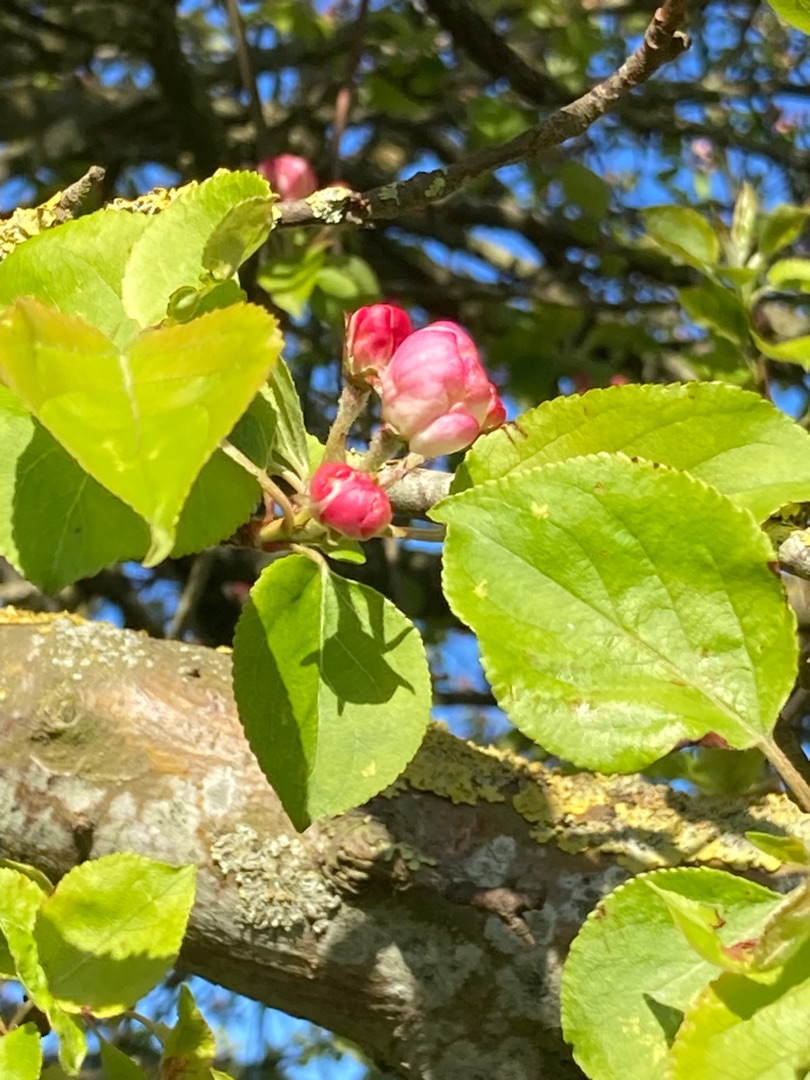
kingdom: Plantae
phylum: Tracheophyta
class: Magnoliopsida
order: Rosales
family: Rosaceae
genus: Malus
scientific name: Malus sylvestris
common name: Skov-æble
